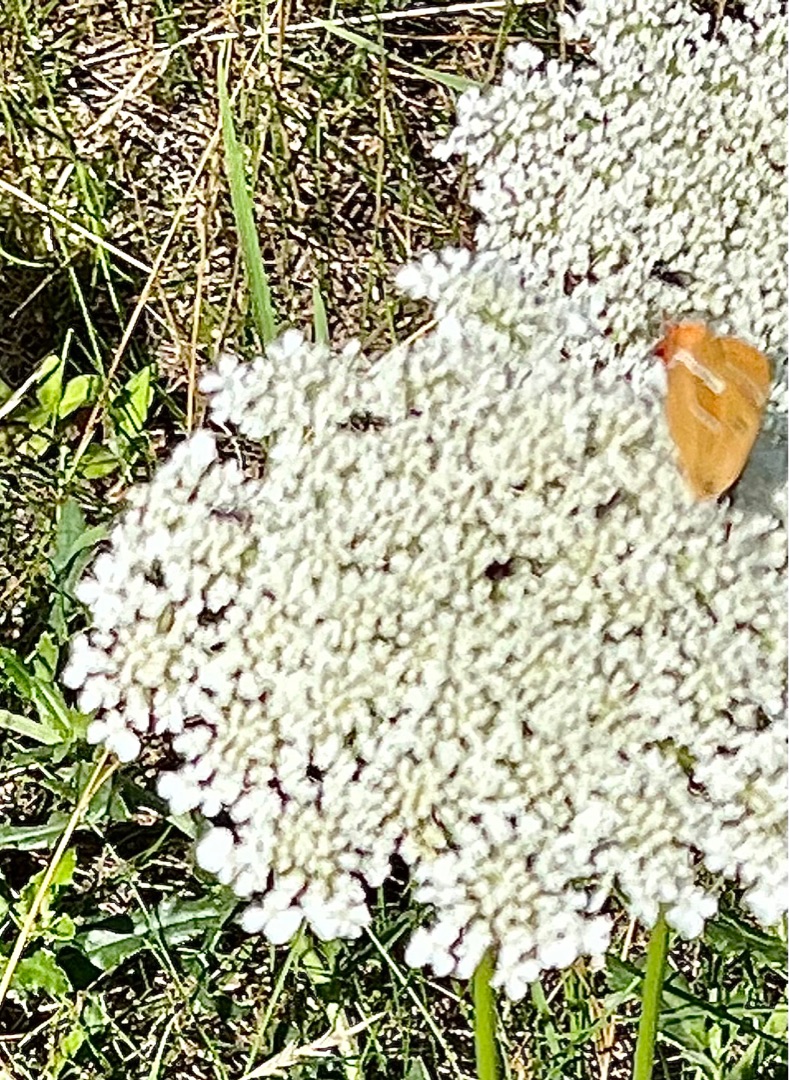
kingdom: Animalia
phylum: Arthropoda
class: Insecta
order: Lepidoptera
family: Lycaenidae
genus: Thecla
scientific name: Thecla betulae
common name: Guldhale
